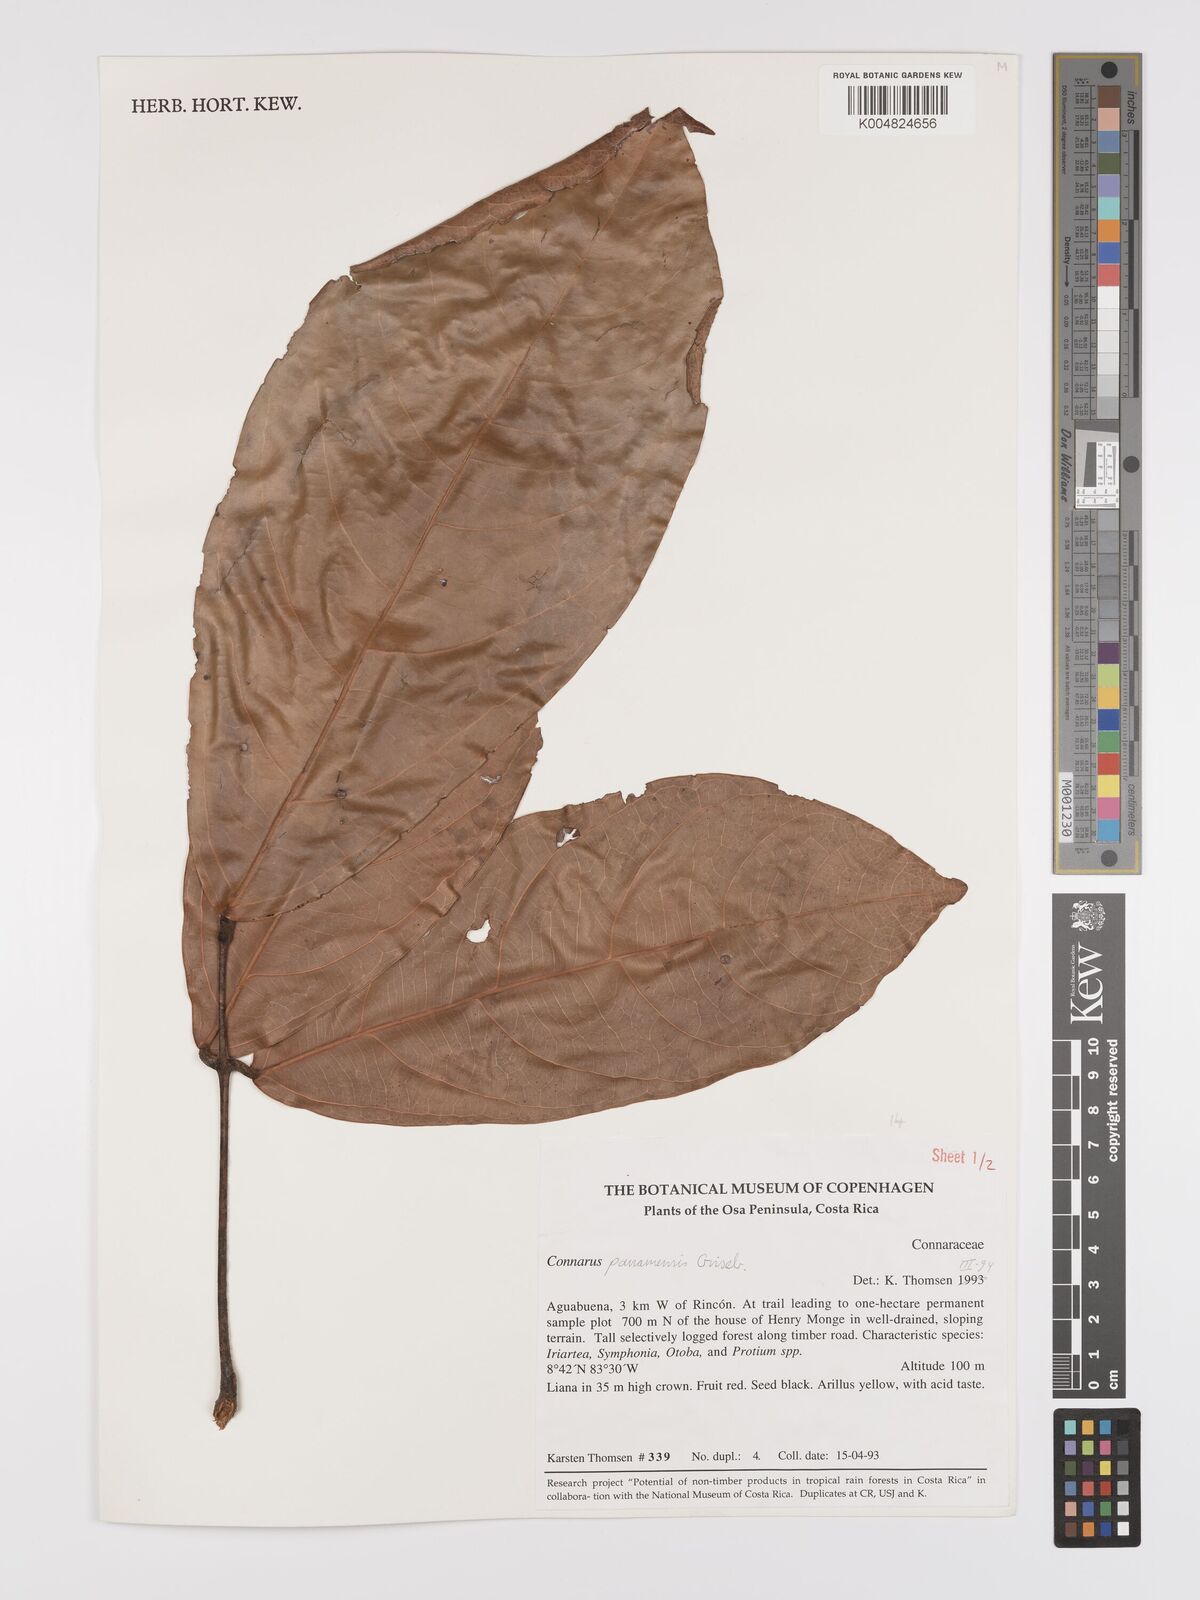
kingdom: Plantae
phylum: Tracheophyta
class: Magnoliopsida
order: Oxalidales
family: Connaraceae
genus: Connarus
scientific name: Connarus
